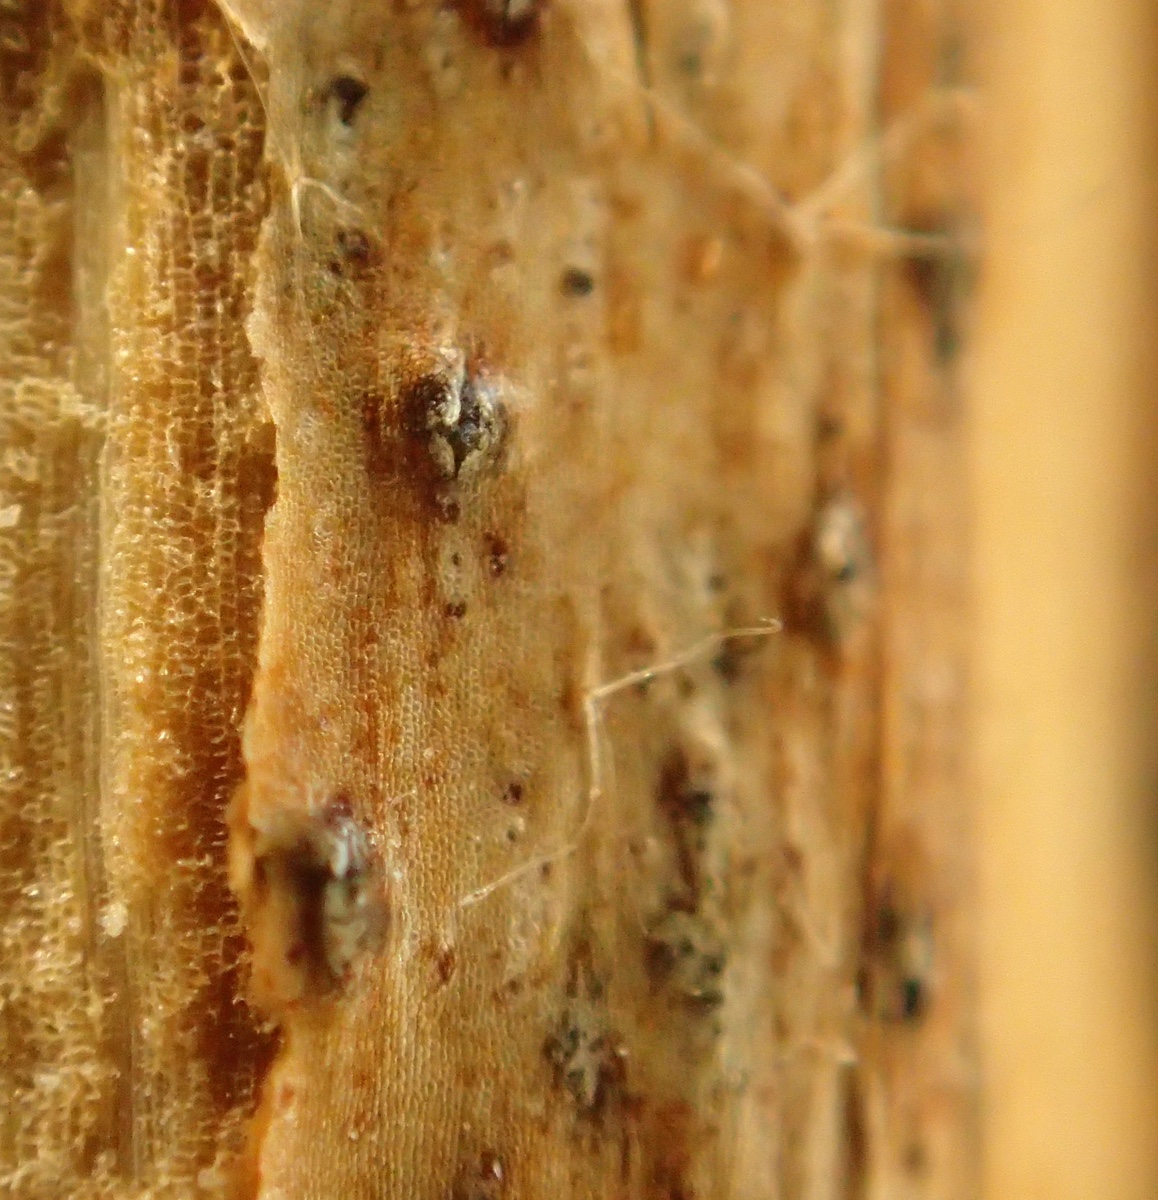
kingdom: Fungi
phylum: Ascomycota
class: Sordariomycetes
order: Glomerellales
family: Glomerellaceae
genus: Colletotrichum
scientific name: Colletotrichum gloeosporioides
